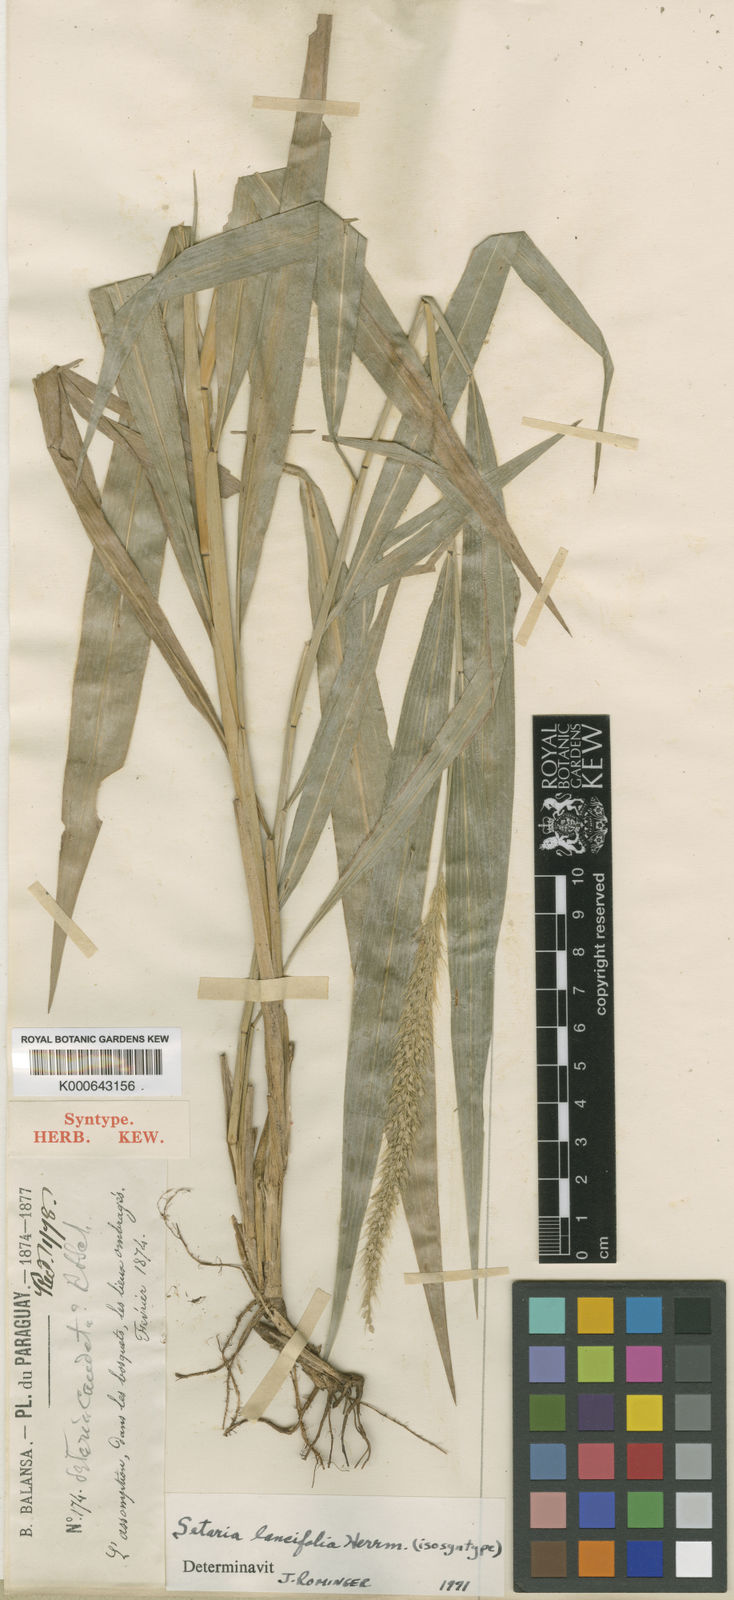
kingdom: Plantae
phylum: Tracheophyta
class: Liliopsida
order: Poales
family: Poaceae
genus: Setaria
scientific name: Setaria vulpiseta
